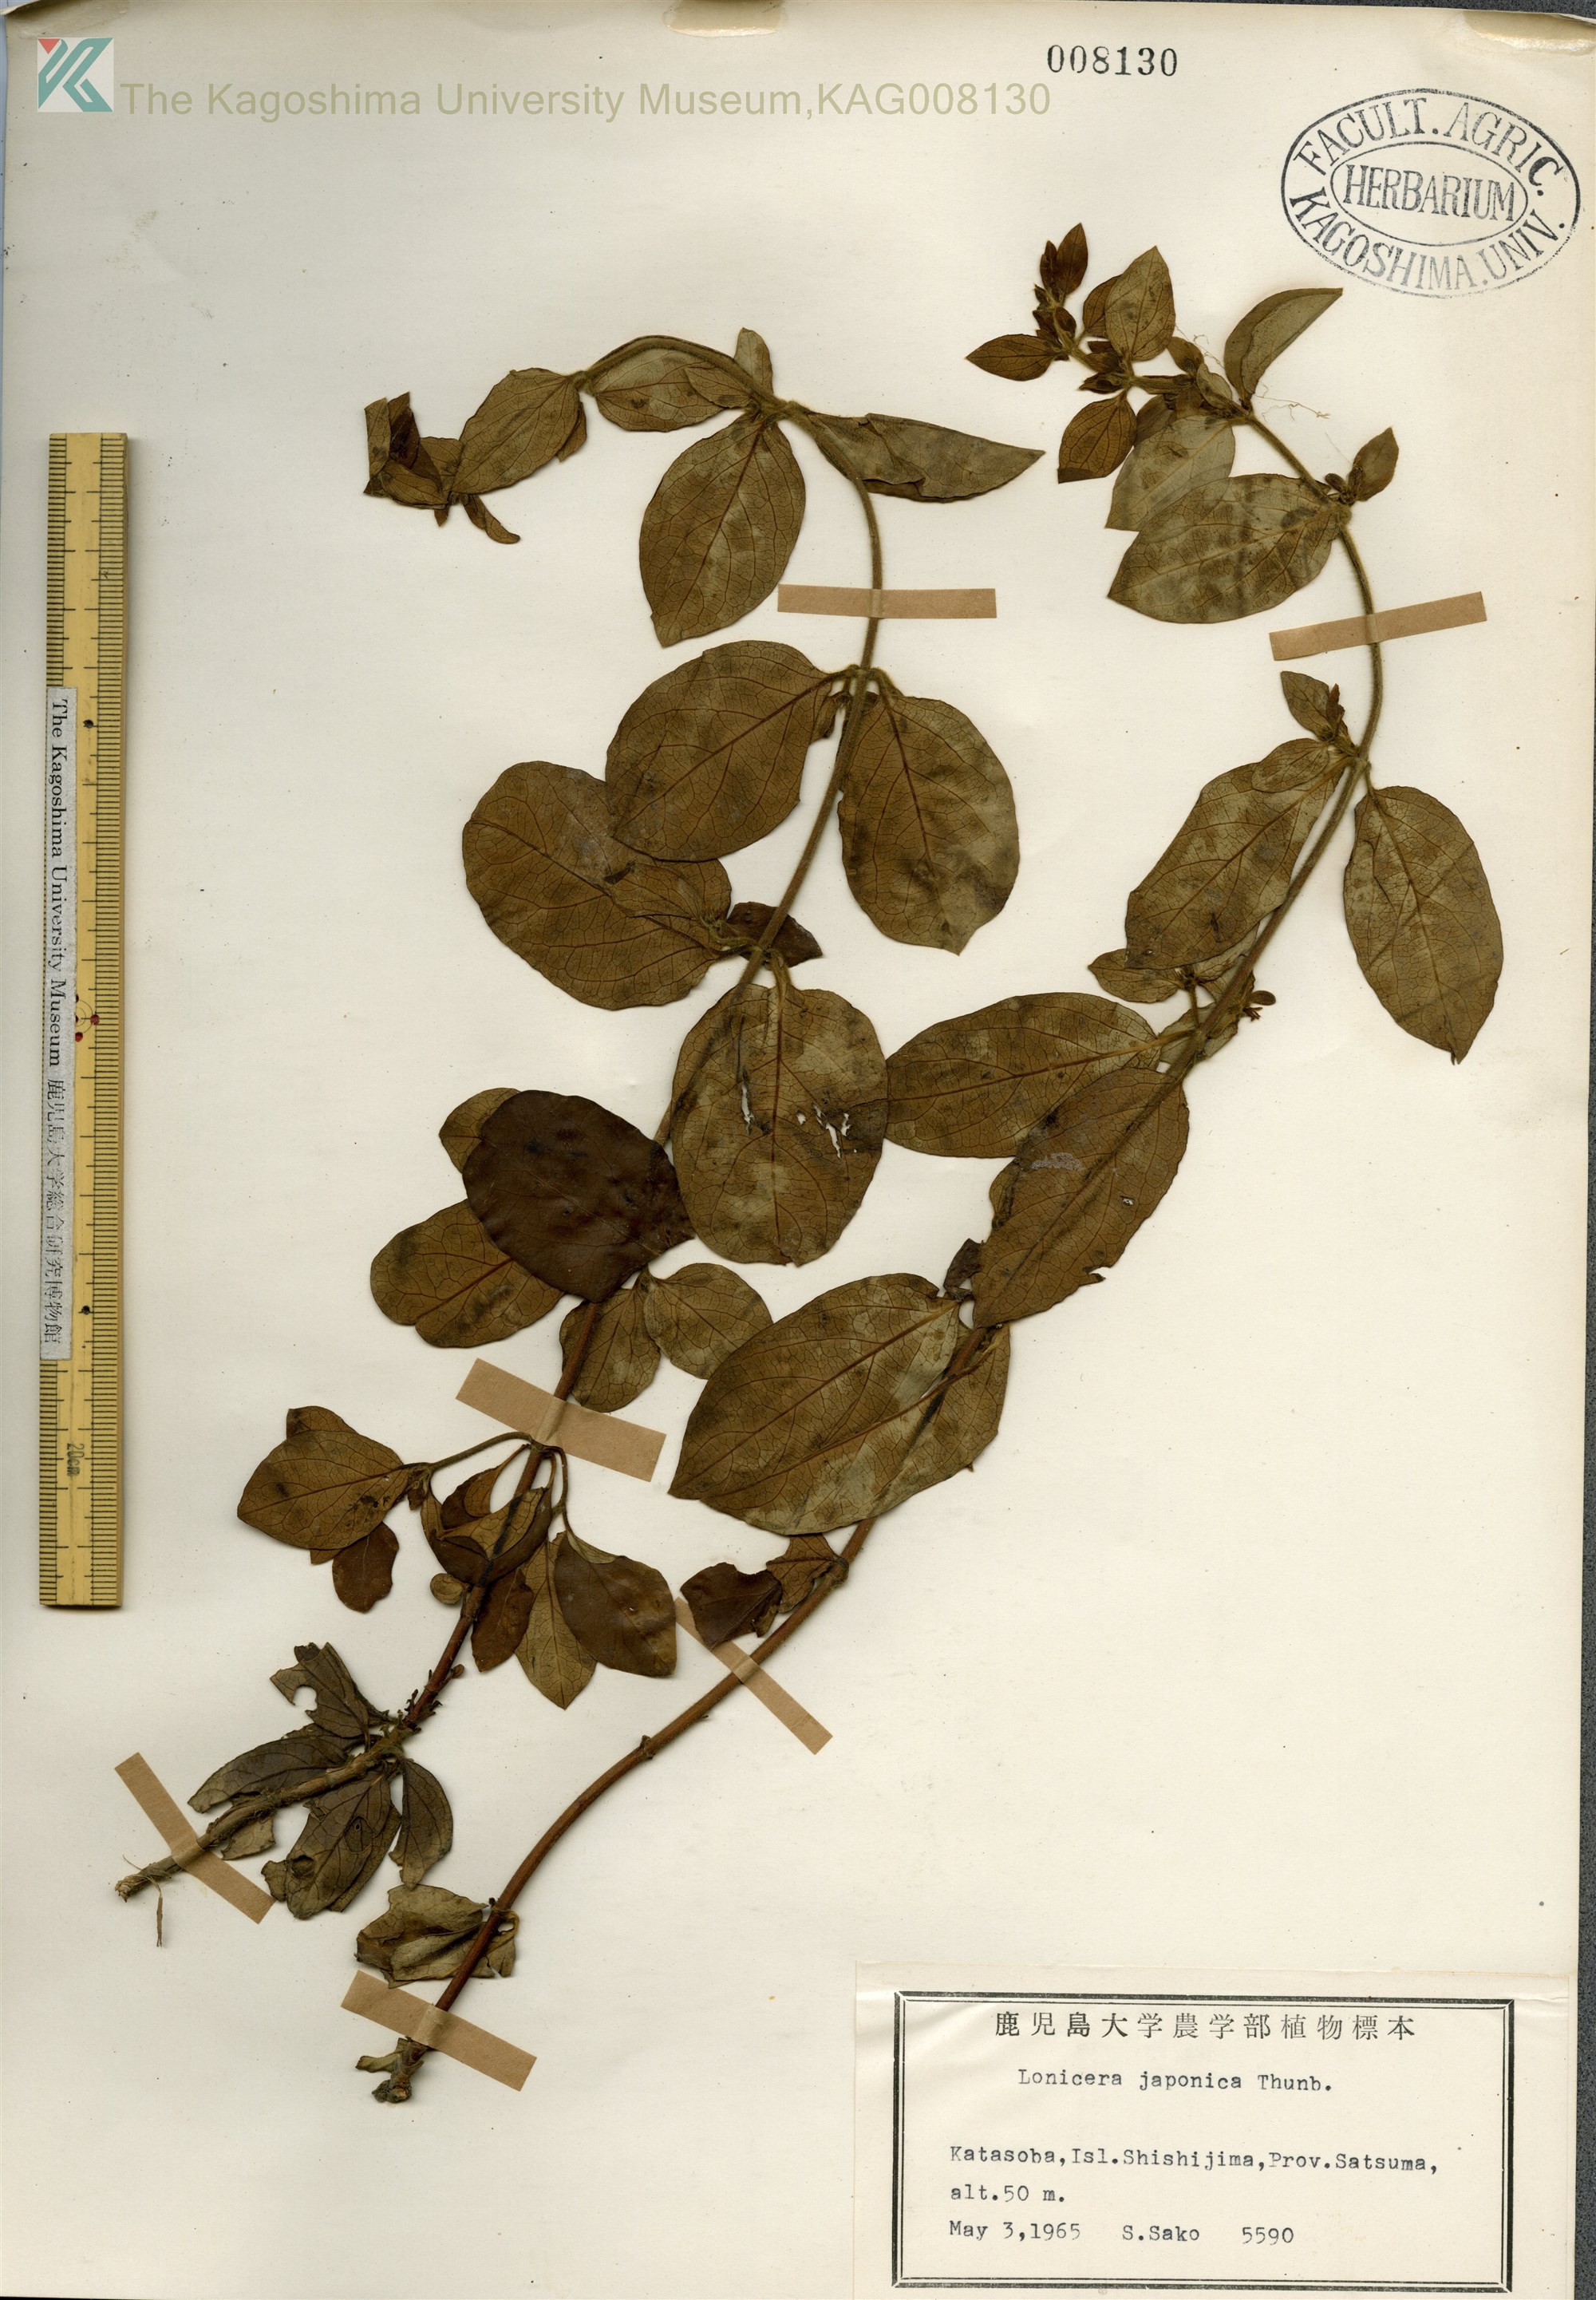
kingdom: Plantae
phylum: Tracheophyta
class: Magnoliopsida
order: Dipsacales
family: Caprifoliaceae
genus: Lonicera
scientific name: Lonicera japonica
